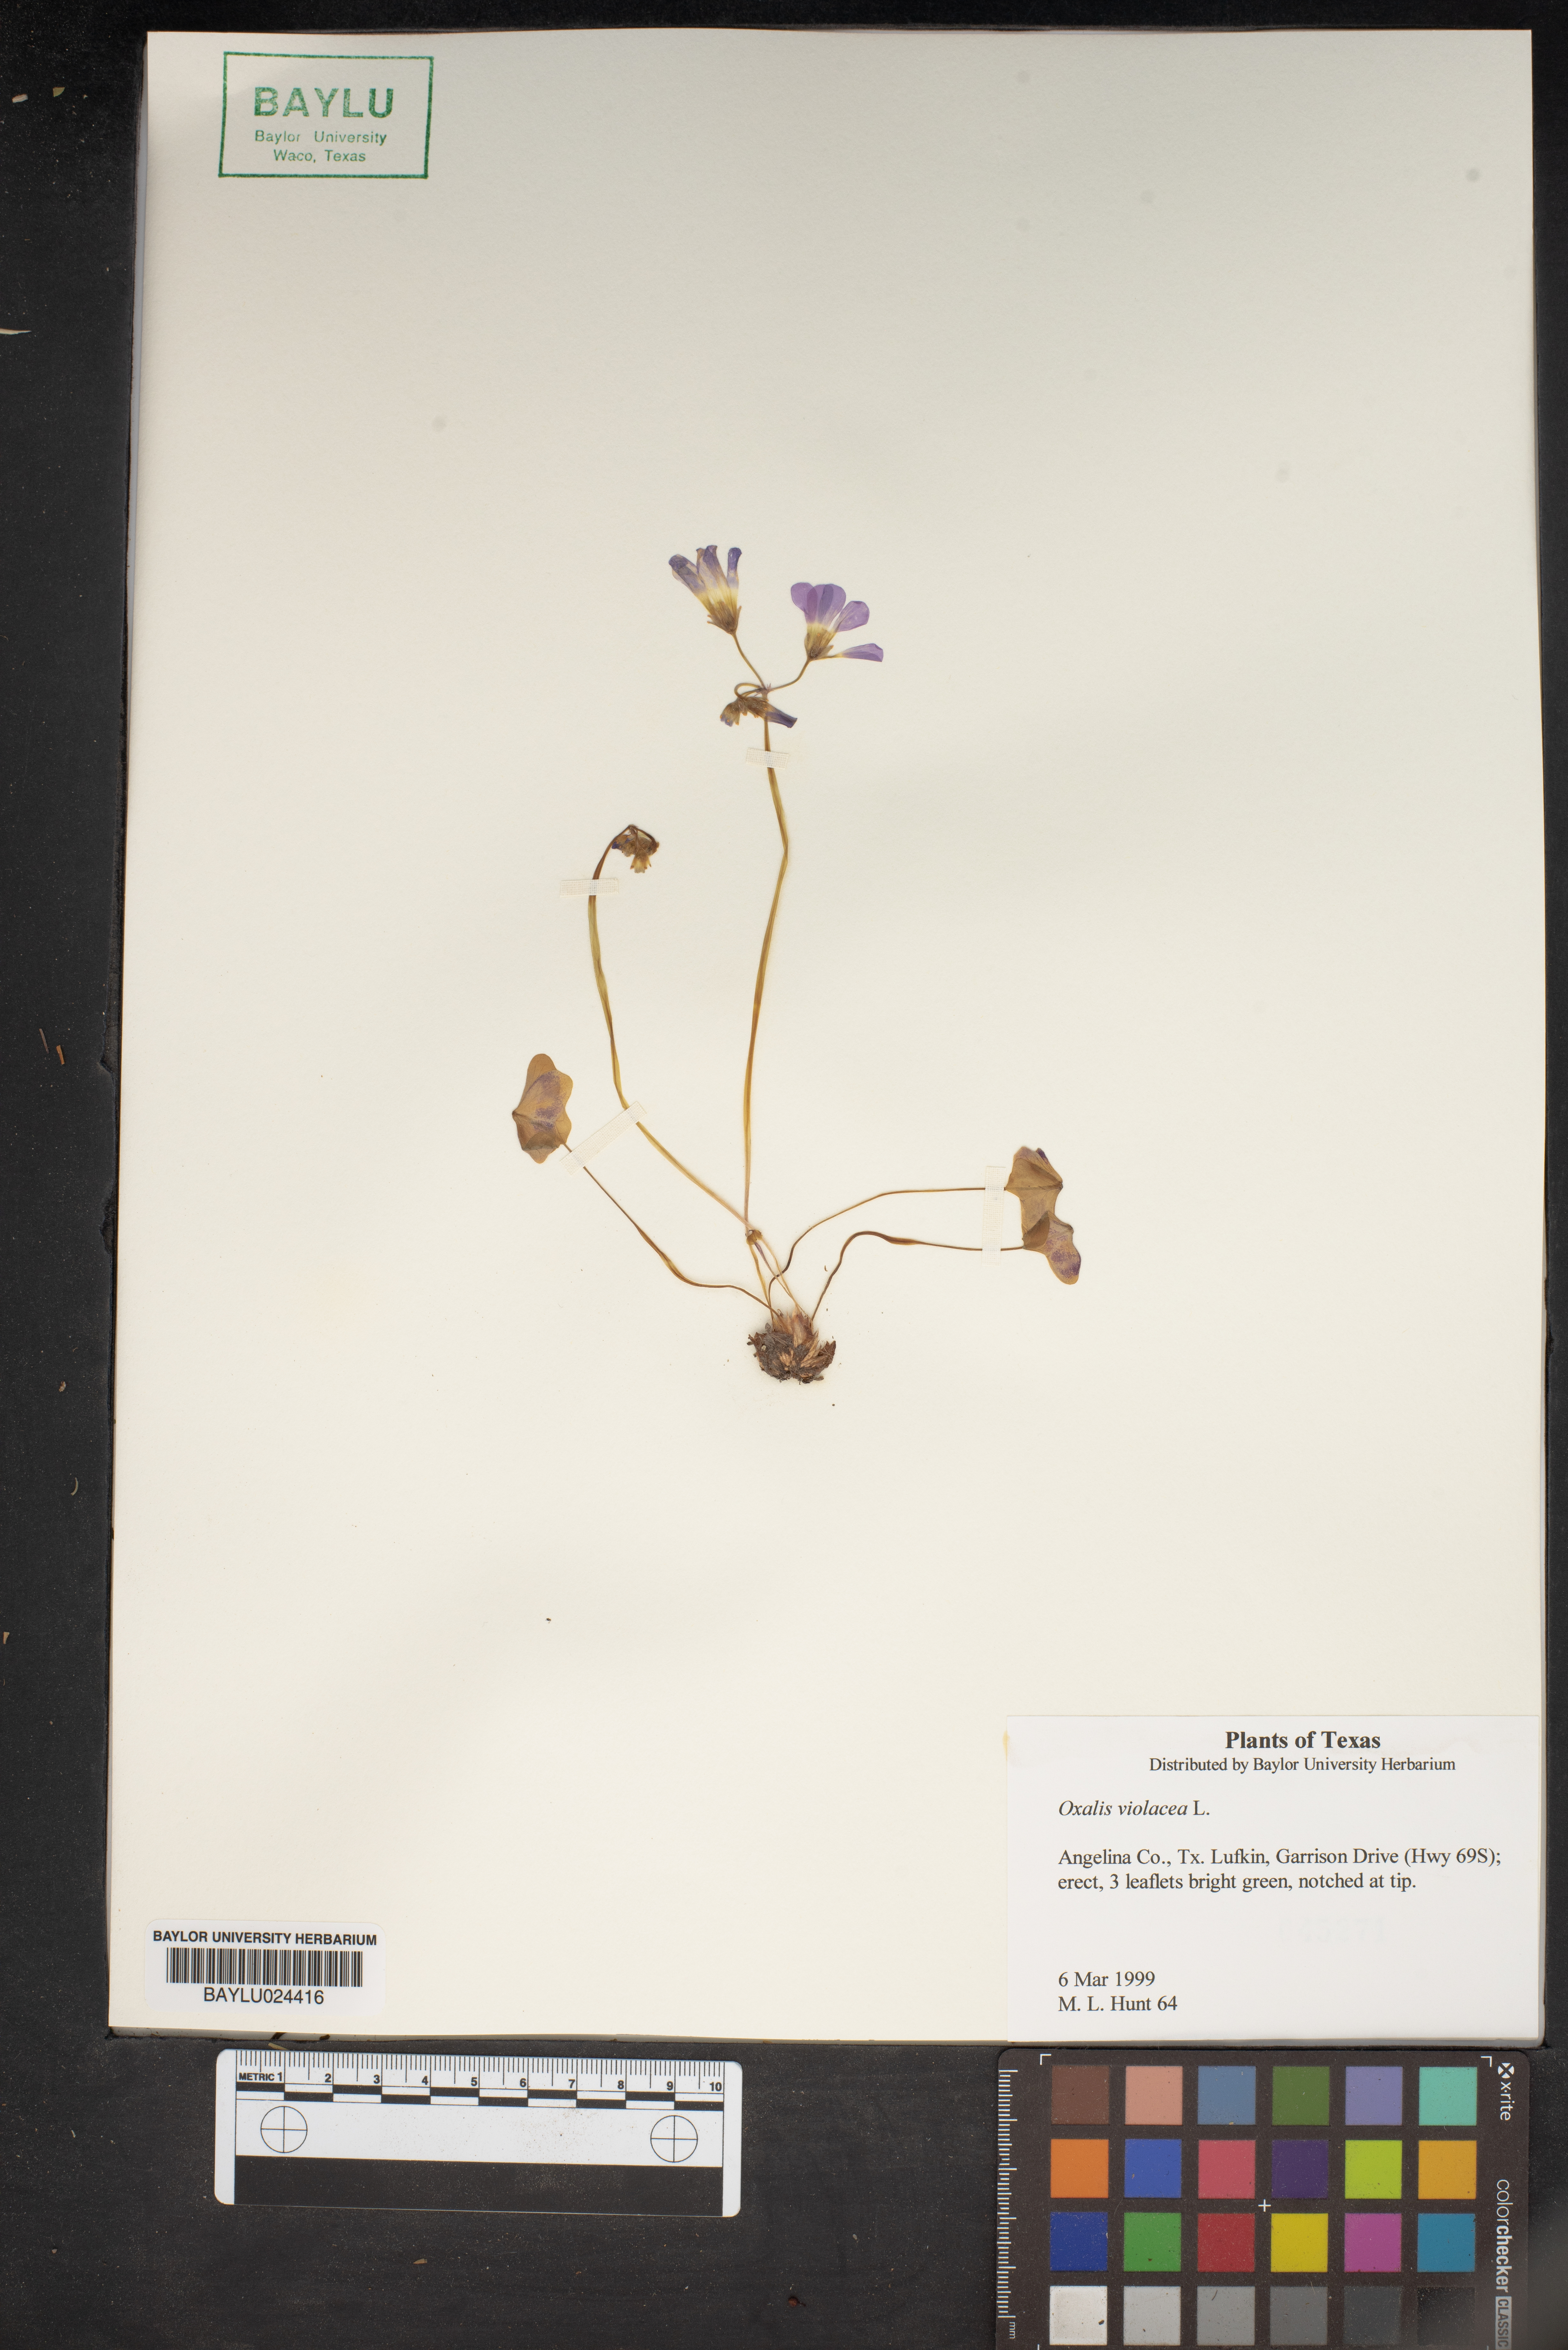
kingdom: Plantae
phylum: Tracheophyta
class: Magnoliopsida
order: Oxalidales
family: Oxalidaceae
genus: Oxalis
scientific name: Oxalis violacea
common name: Violet wood-sorrel
